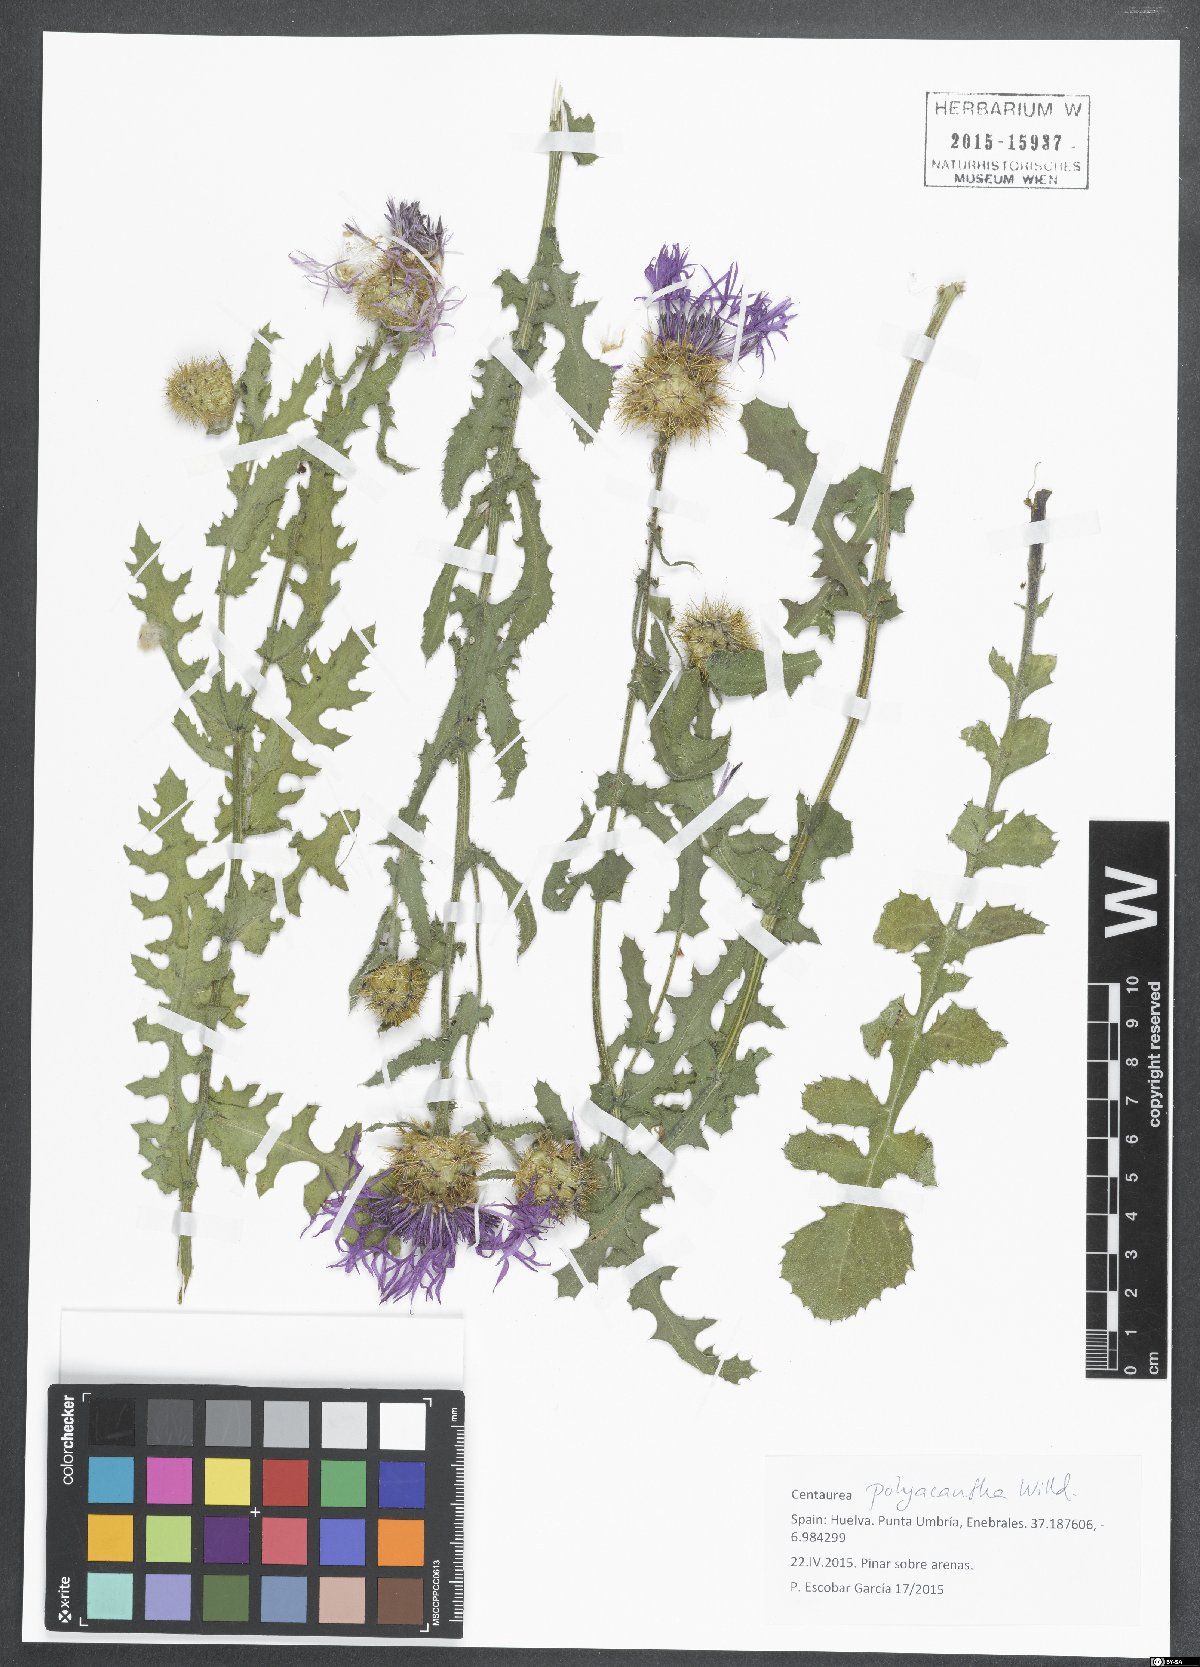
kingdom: Plantae
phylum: Tracheophyta
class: Magnoliopsida
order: Asterales
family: Asteraceae
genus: Centaurea
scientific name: Centaurea polyacantha
